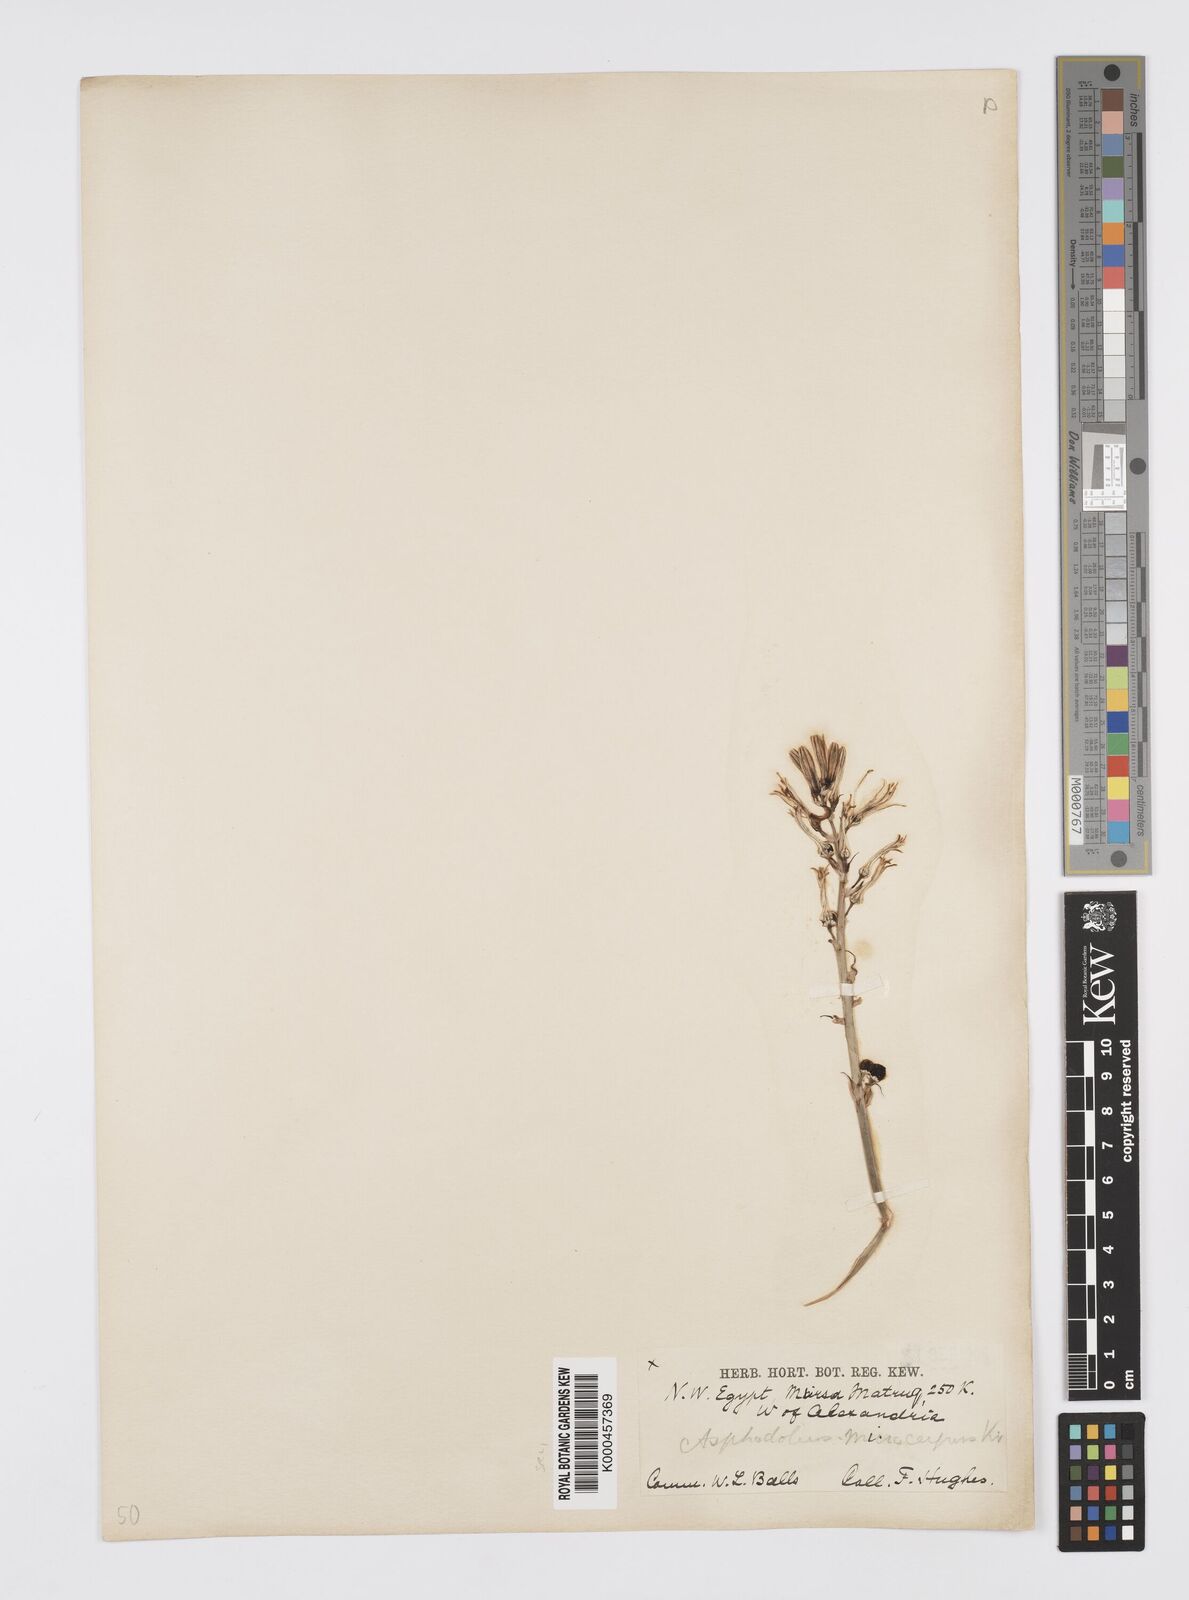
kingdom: Plantae
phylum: Tracheophyta
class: Liliopsida
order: Asparagales
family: Asphodelaceae
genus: Asphodelus
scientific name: Asphodelus aestivus
